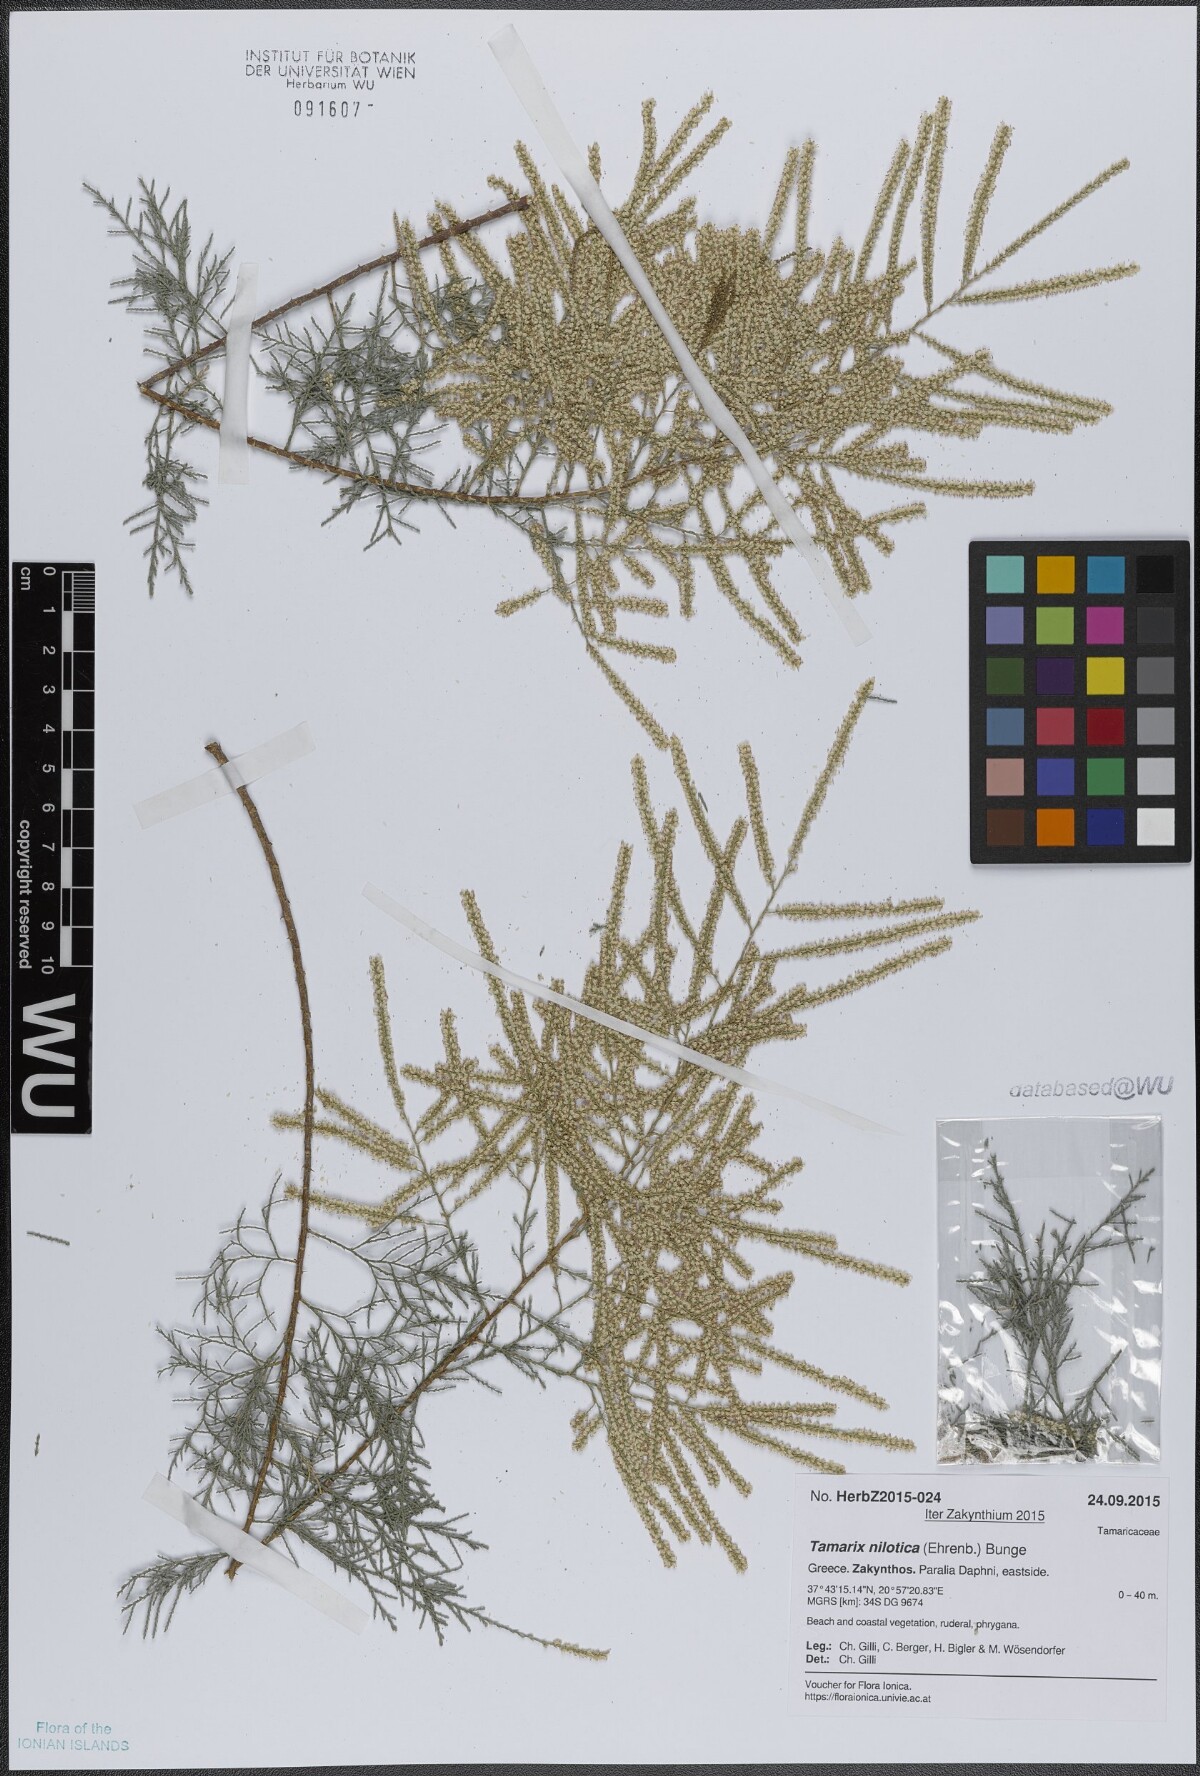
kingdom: Plantae
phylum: Tracheophyta
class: Magnoliopsida
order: Caryophyllales
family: Tamaricaceae
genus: Tamarix
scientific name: Tamarix nilotica
